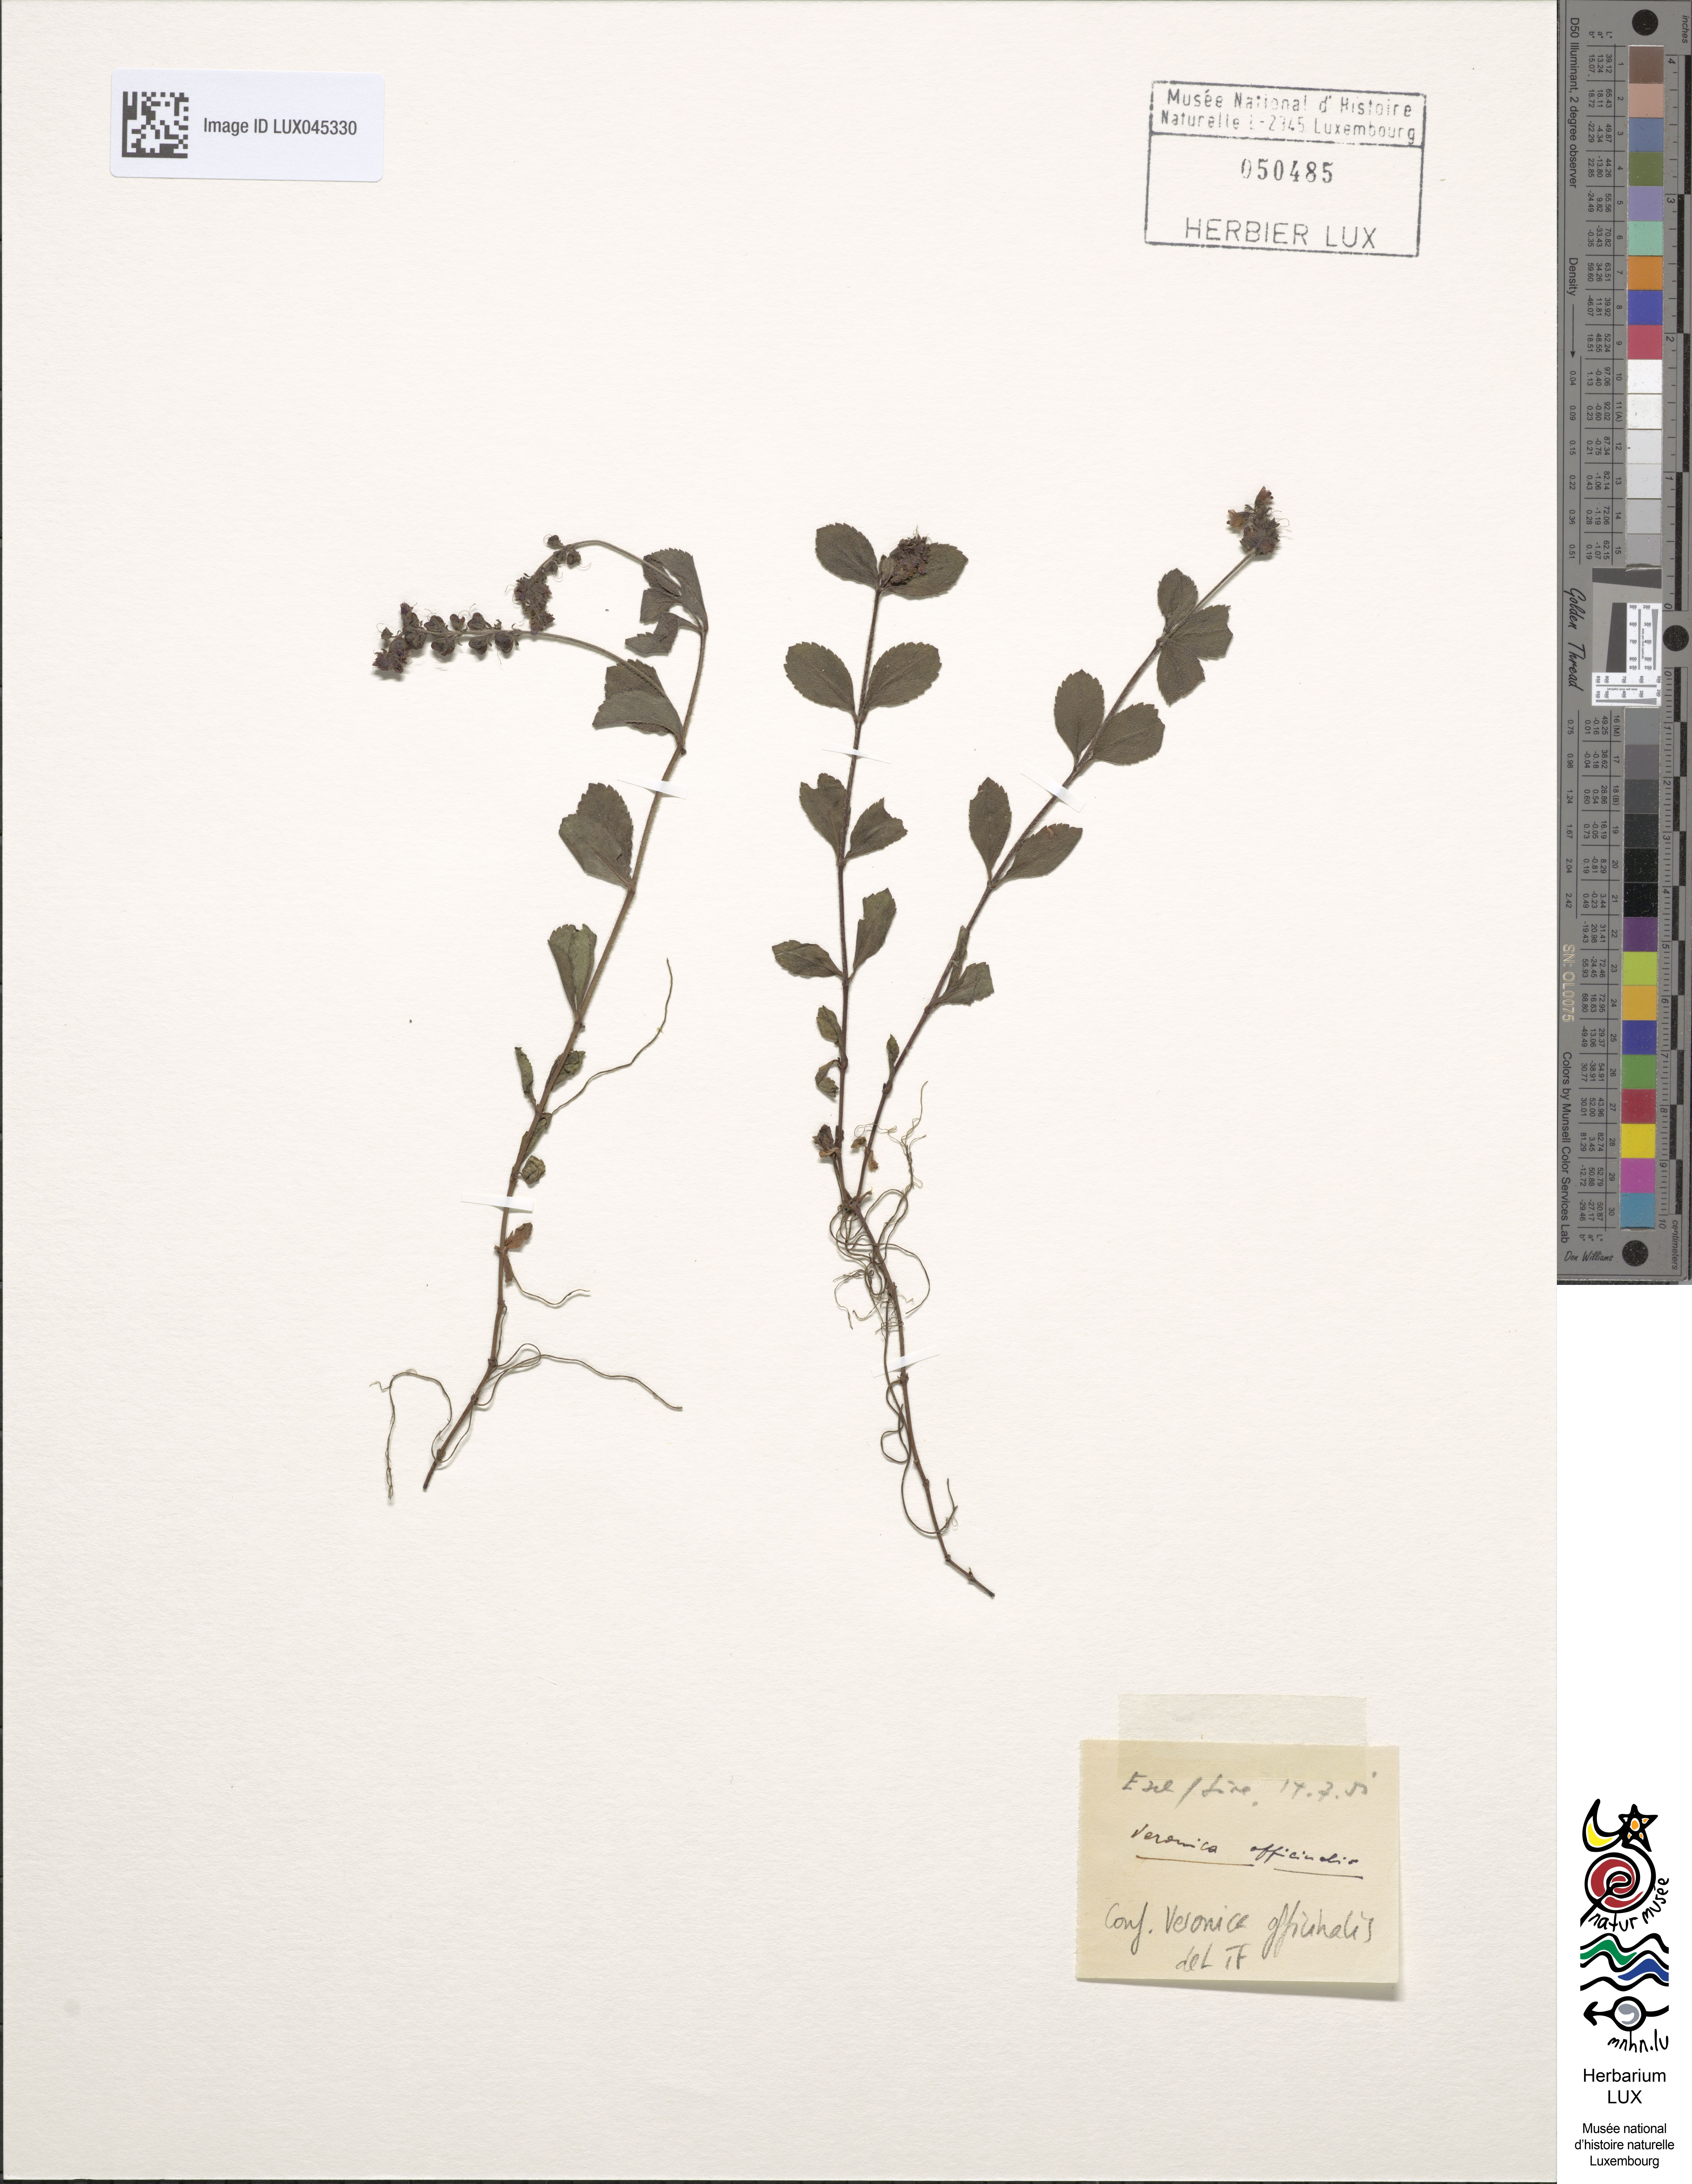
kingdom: Plantae
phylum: Tracheophyta
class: Magnoliopsida
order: Lamiales
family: Plantaginaceae
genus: Veronica
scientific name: Veronica officinalis
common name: Common speedwell
